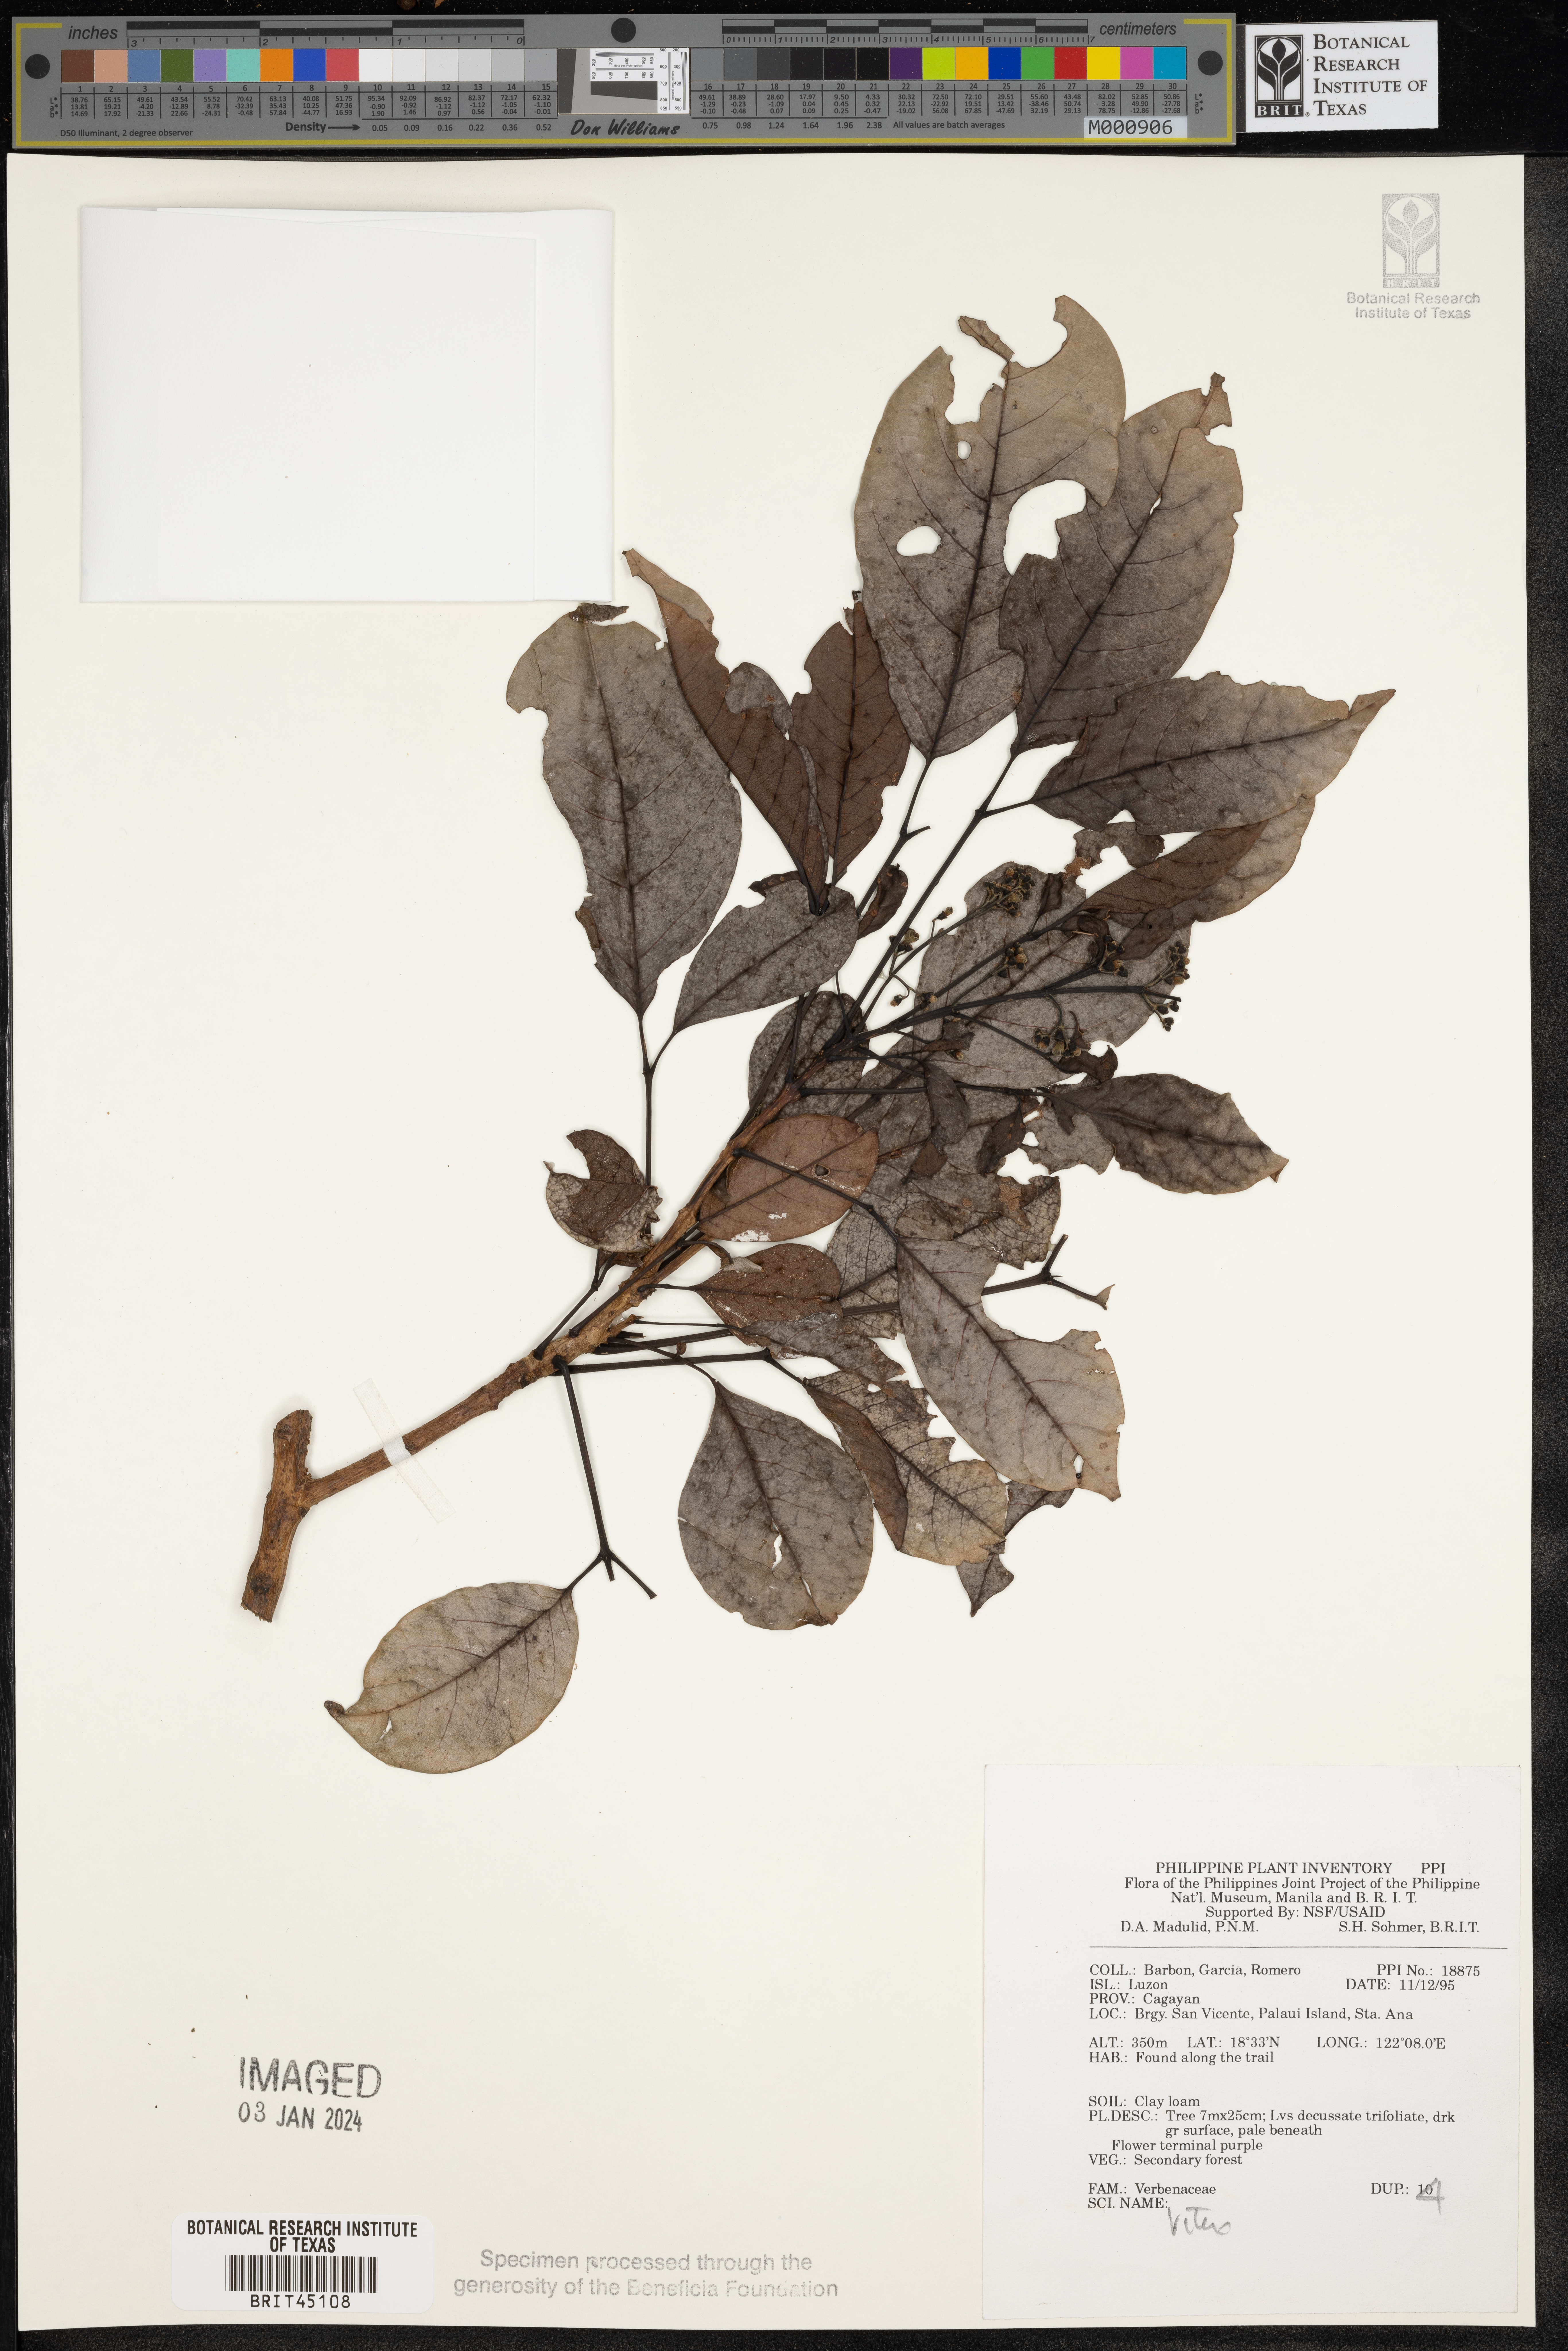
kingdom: Plantae
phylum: Tracheophyta
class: Magnoliopsida
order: Lamiales
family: Lamiaceae
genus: Vitex
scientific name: Vitex
